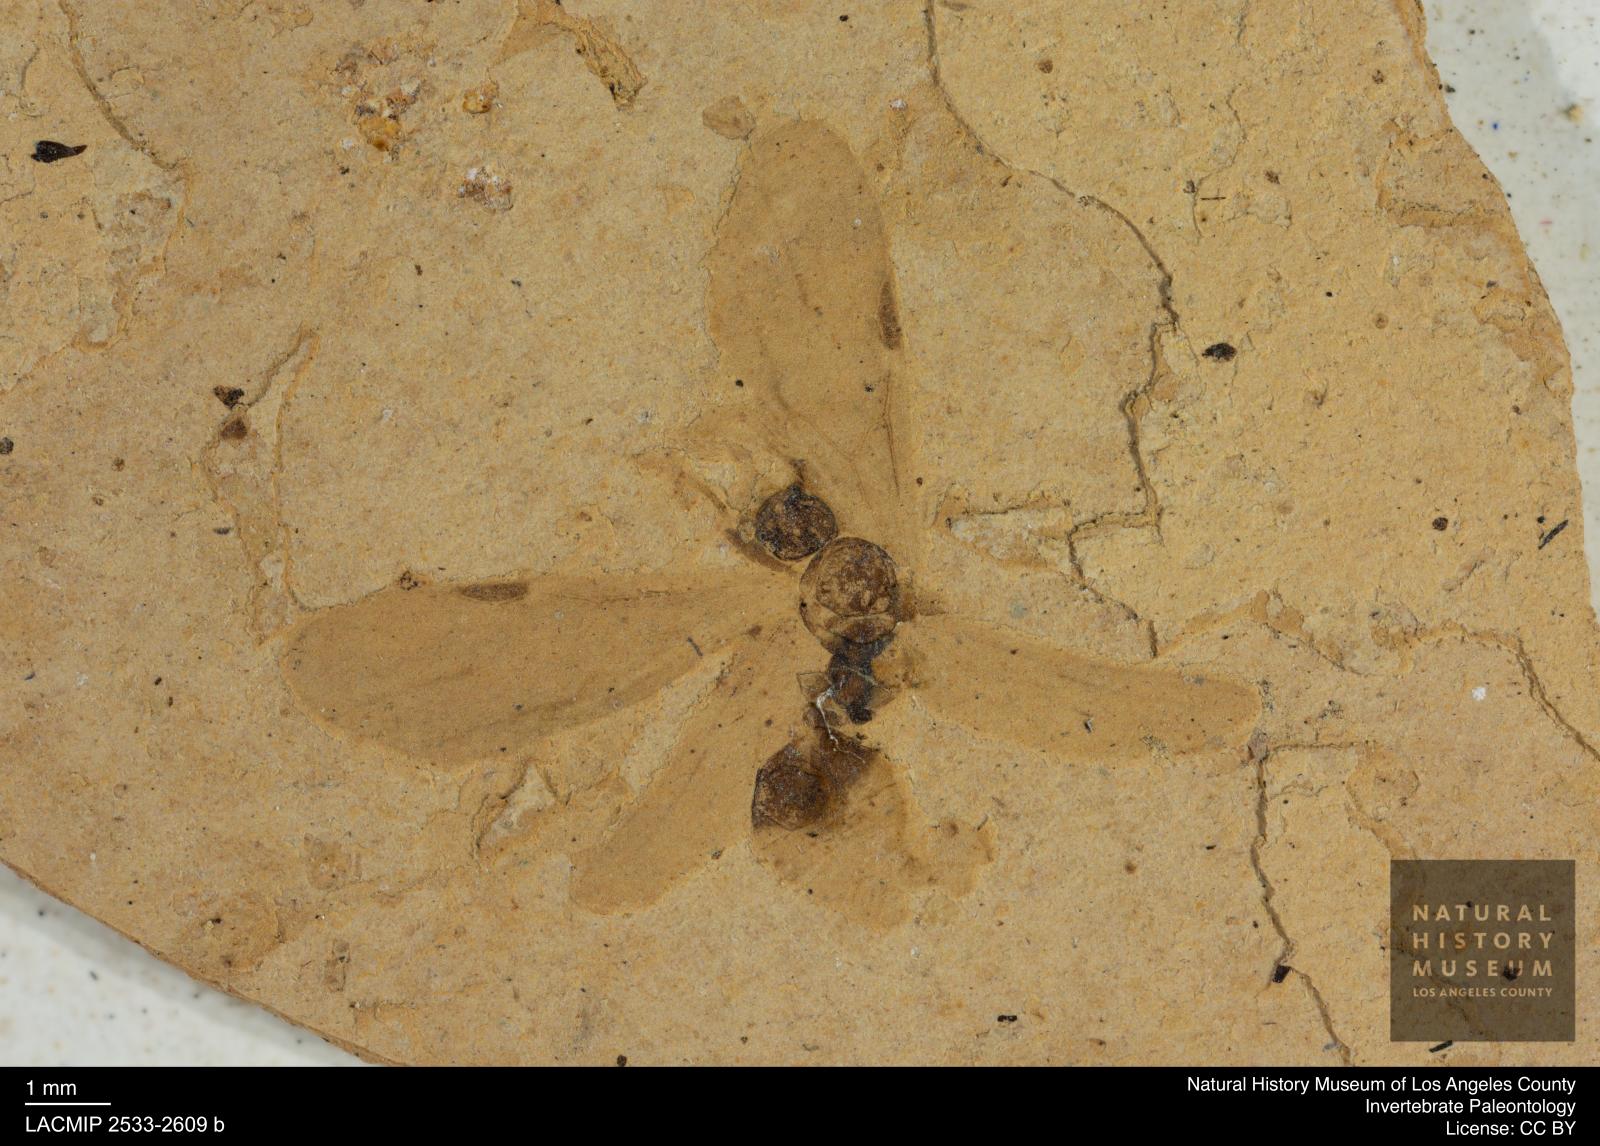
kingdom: Animalia
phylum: Arthropoda
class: Insecta
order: Hymenoptera
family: Formicidae
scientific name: Formicidae
